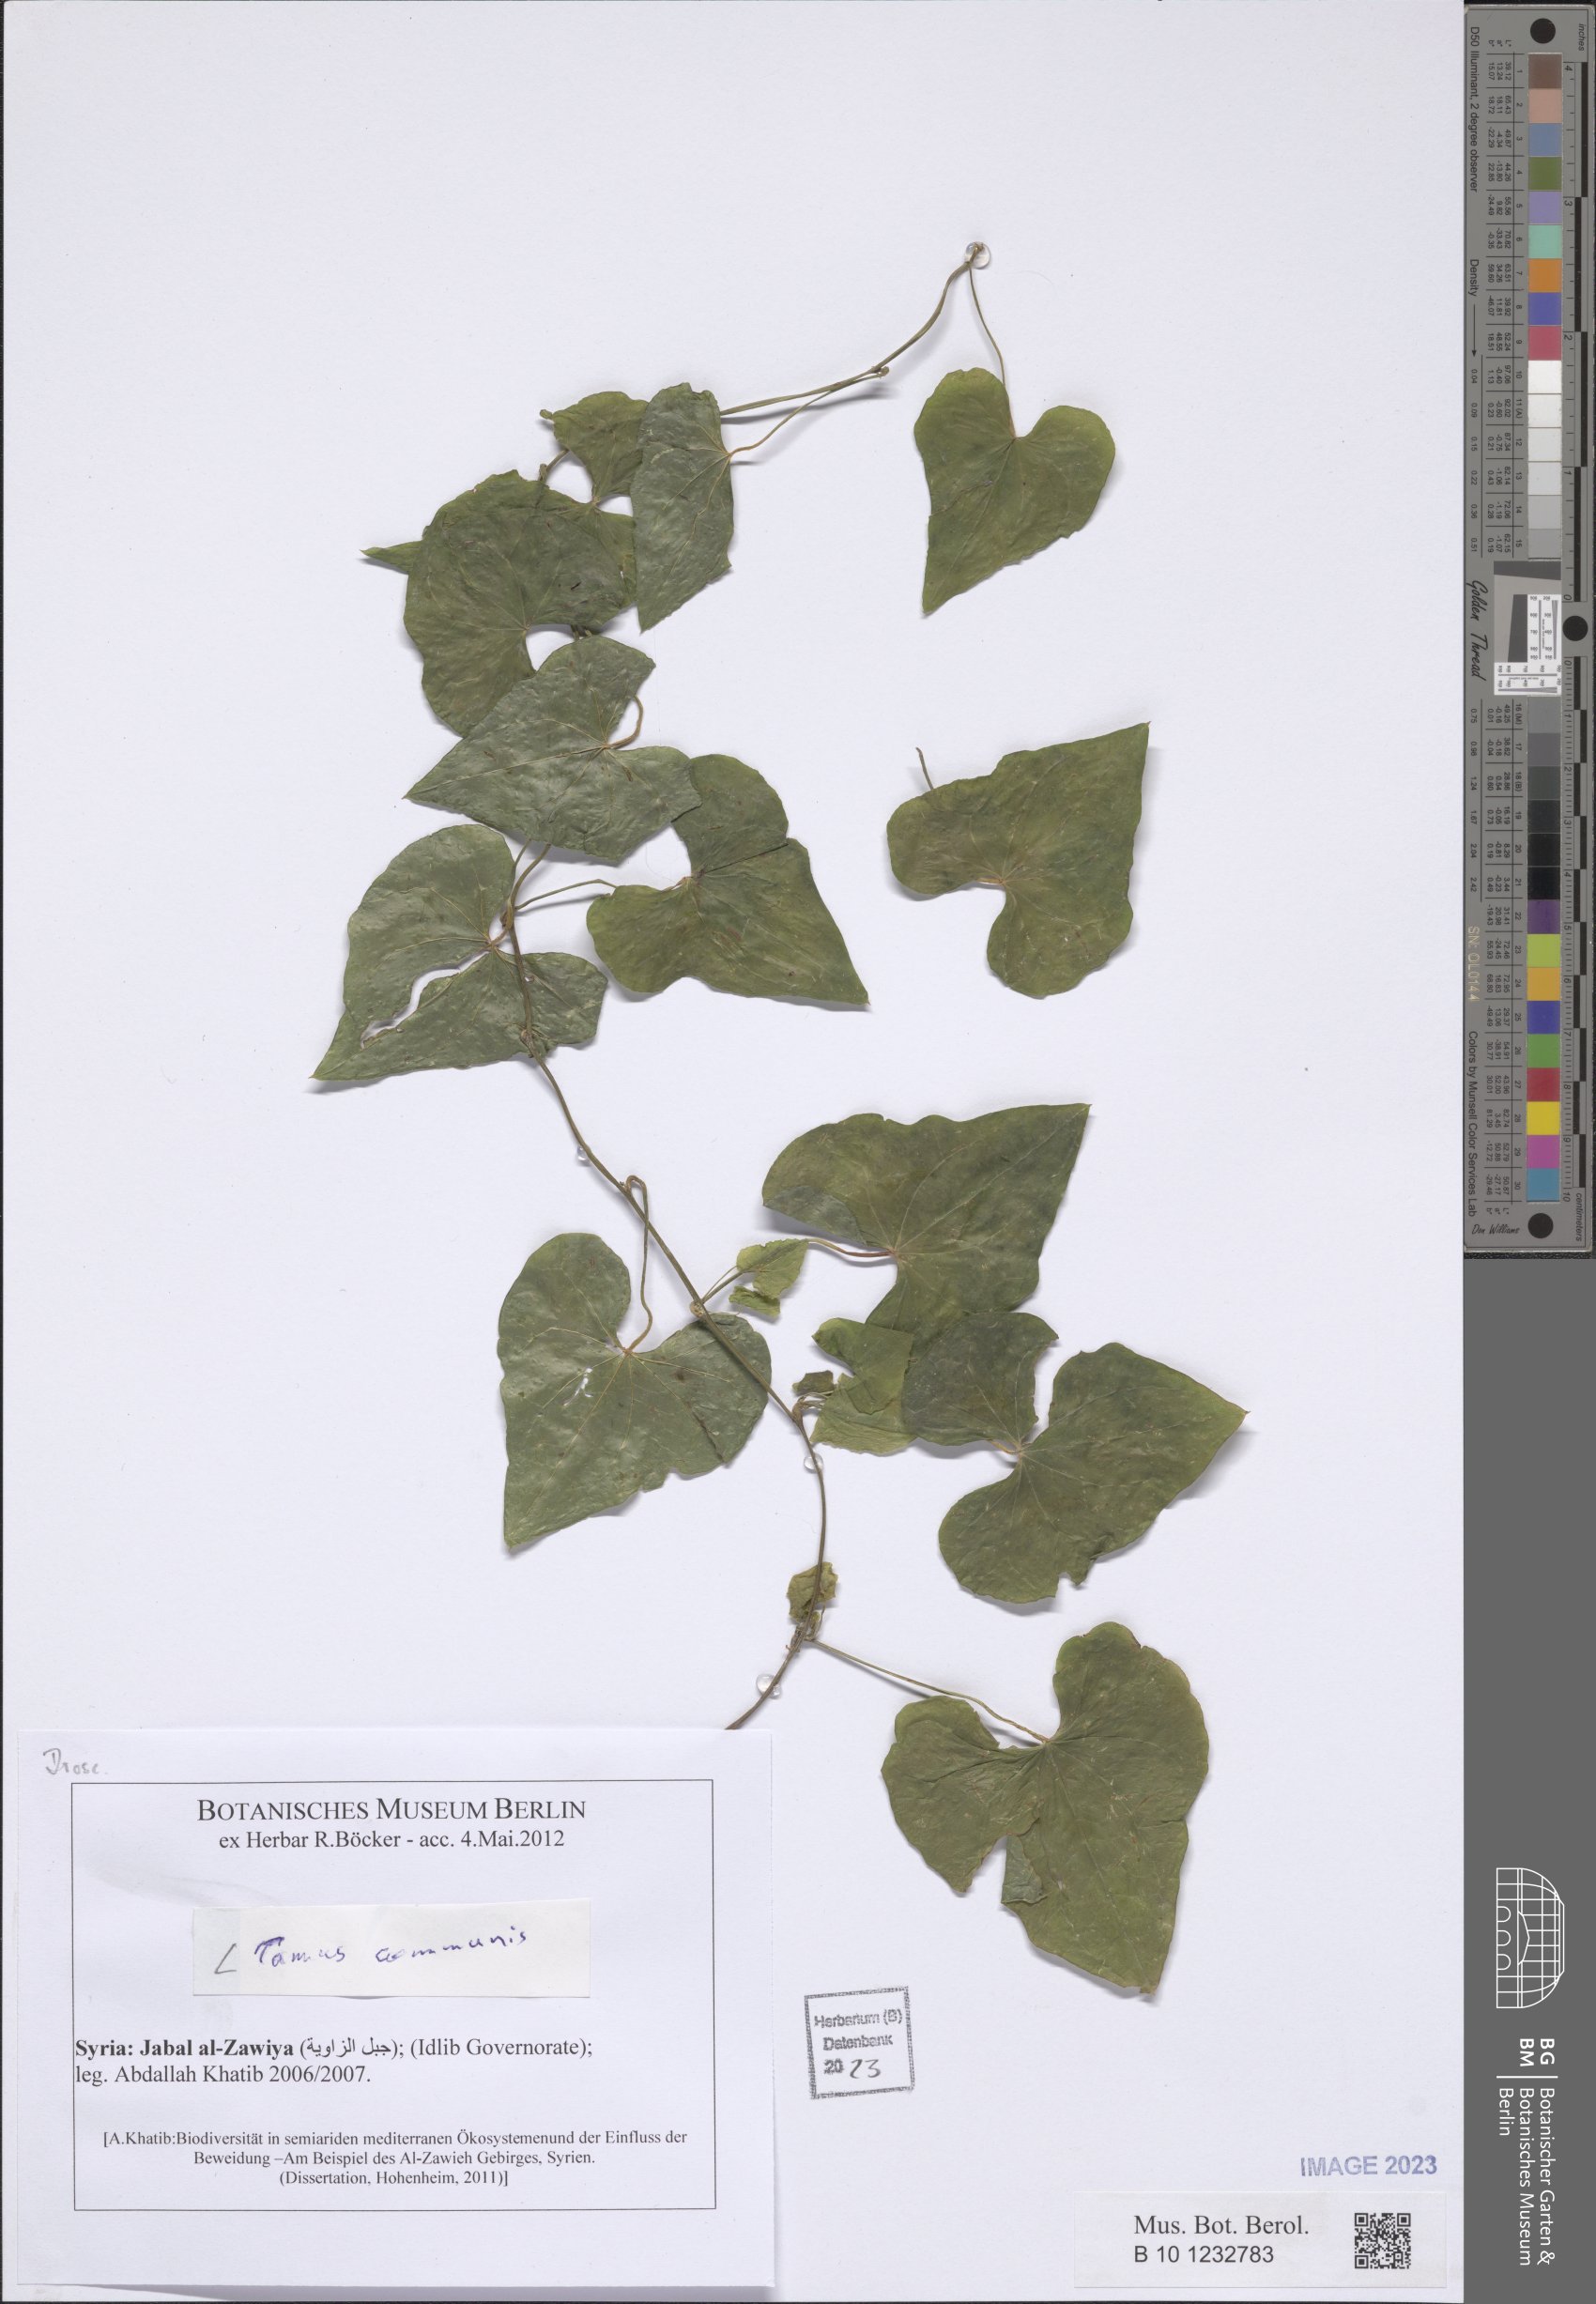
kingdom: Plantae
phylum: Tracheophyta
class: Liliopsida
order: Dioscoreales
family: Dioscoreaceae
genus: Dioscorea
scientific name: Dioscorea communis
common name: Black-bindweed
